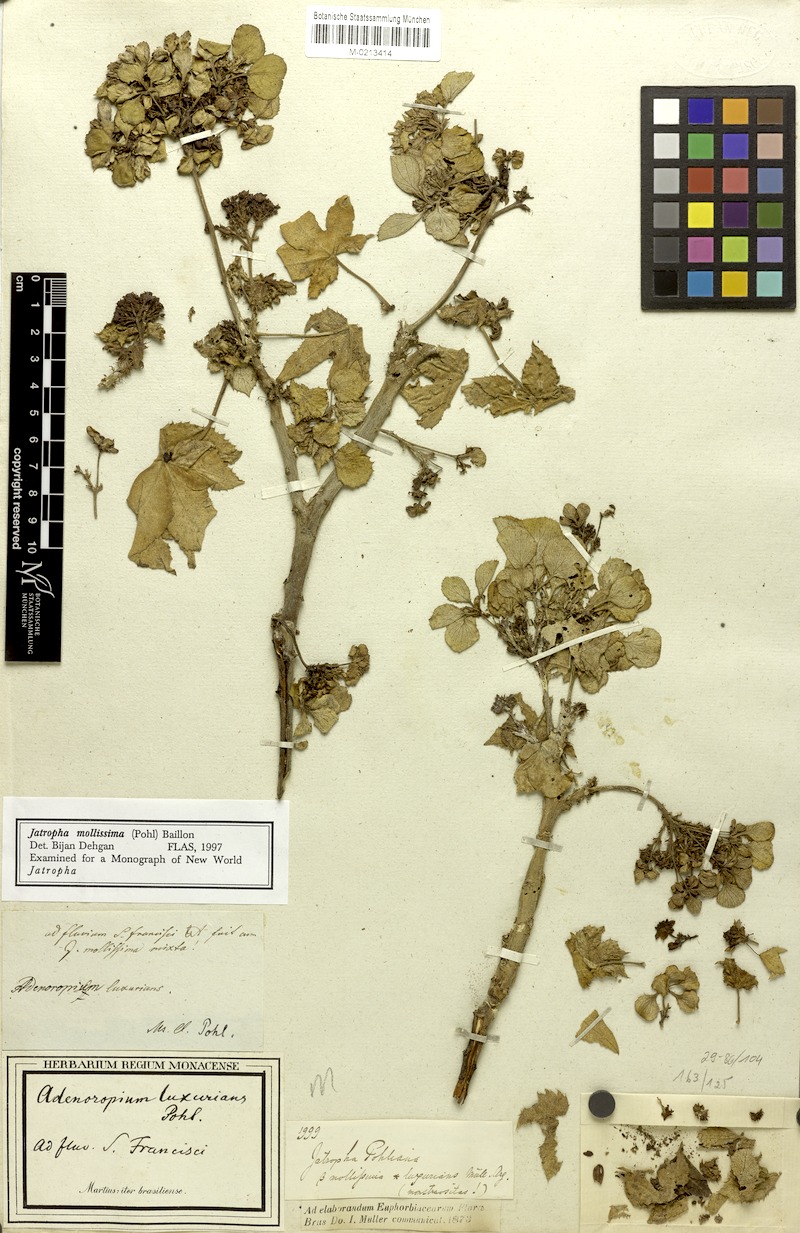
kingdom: Plantae
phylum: Tracheophyta
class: Magnoliopsida
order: Malpighiales
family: Euphorbiaceae
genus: Jatropha
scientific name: Jatropha mollissima
